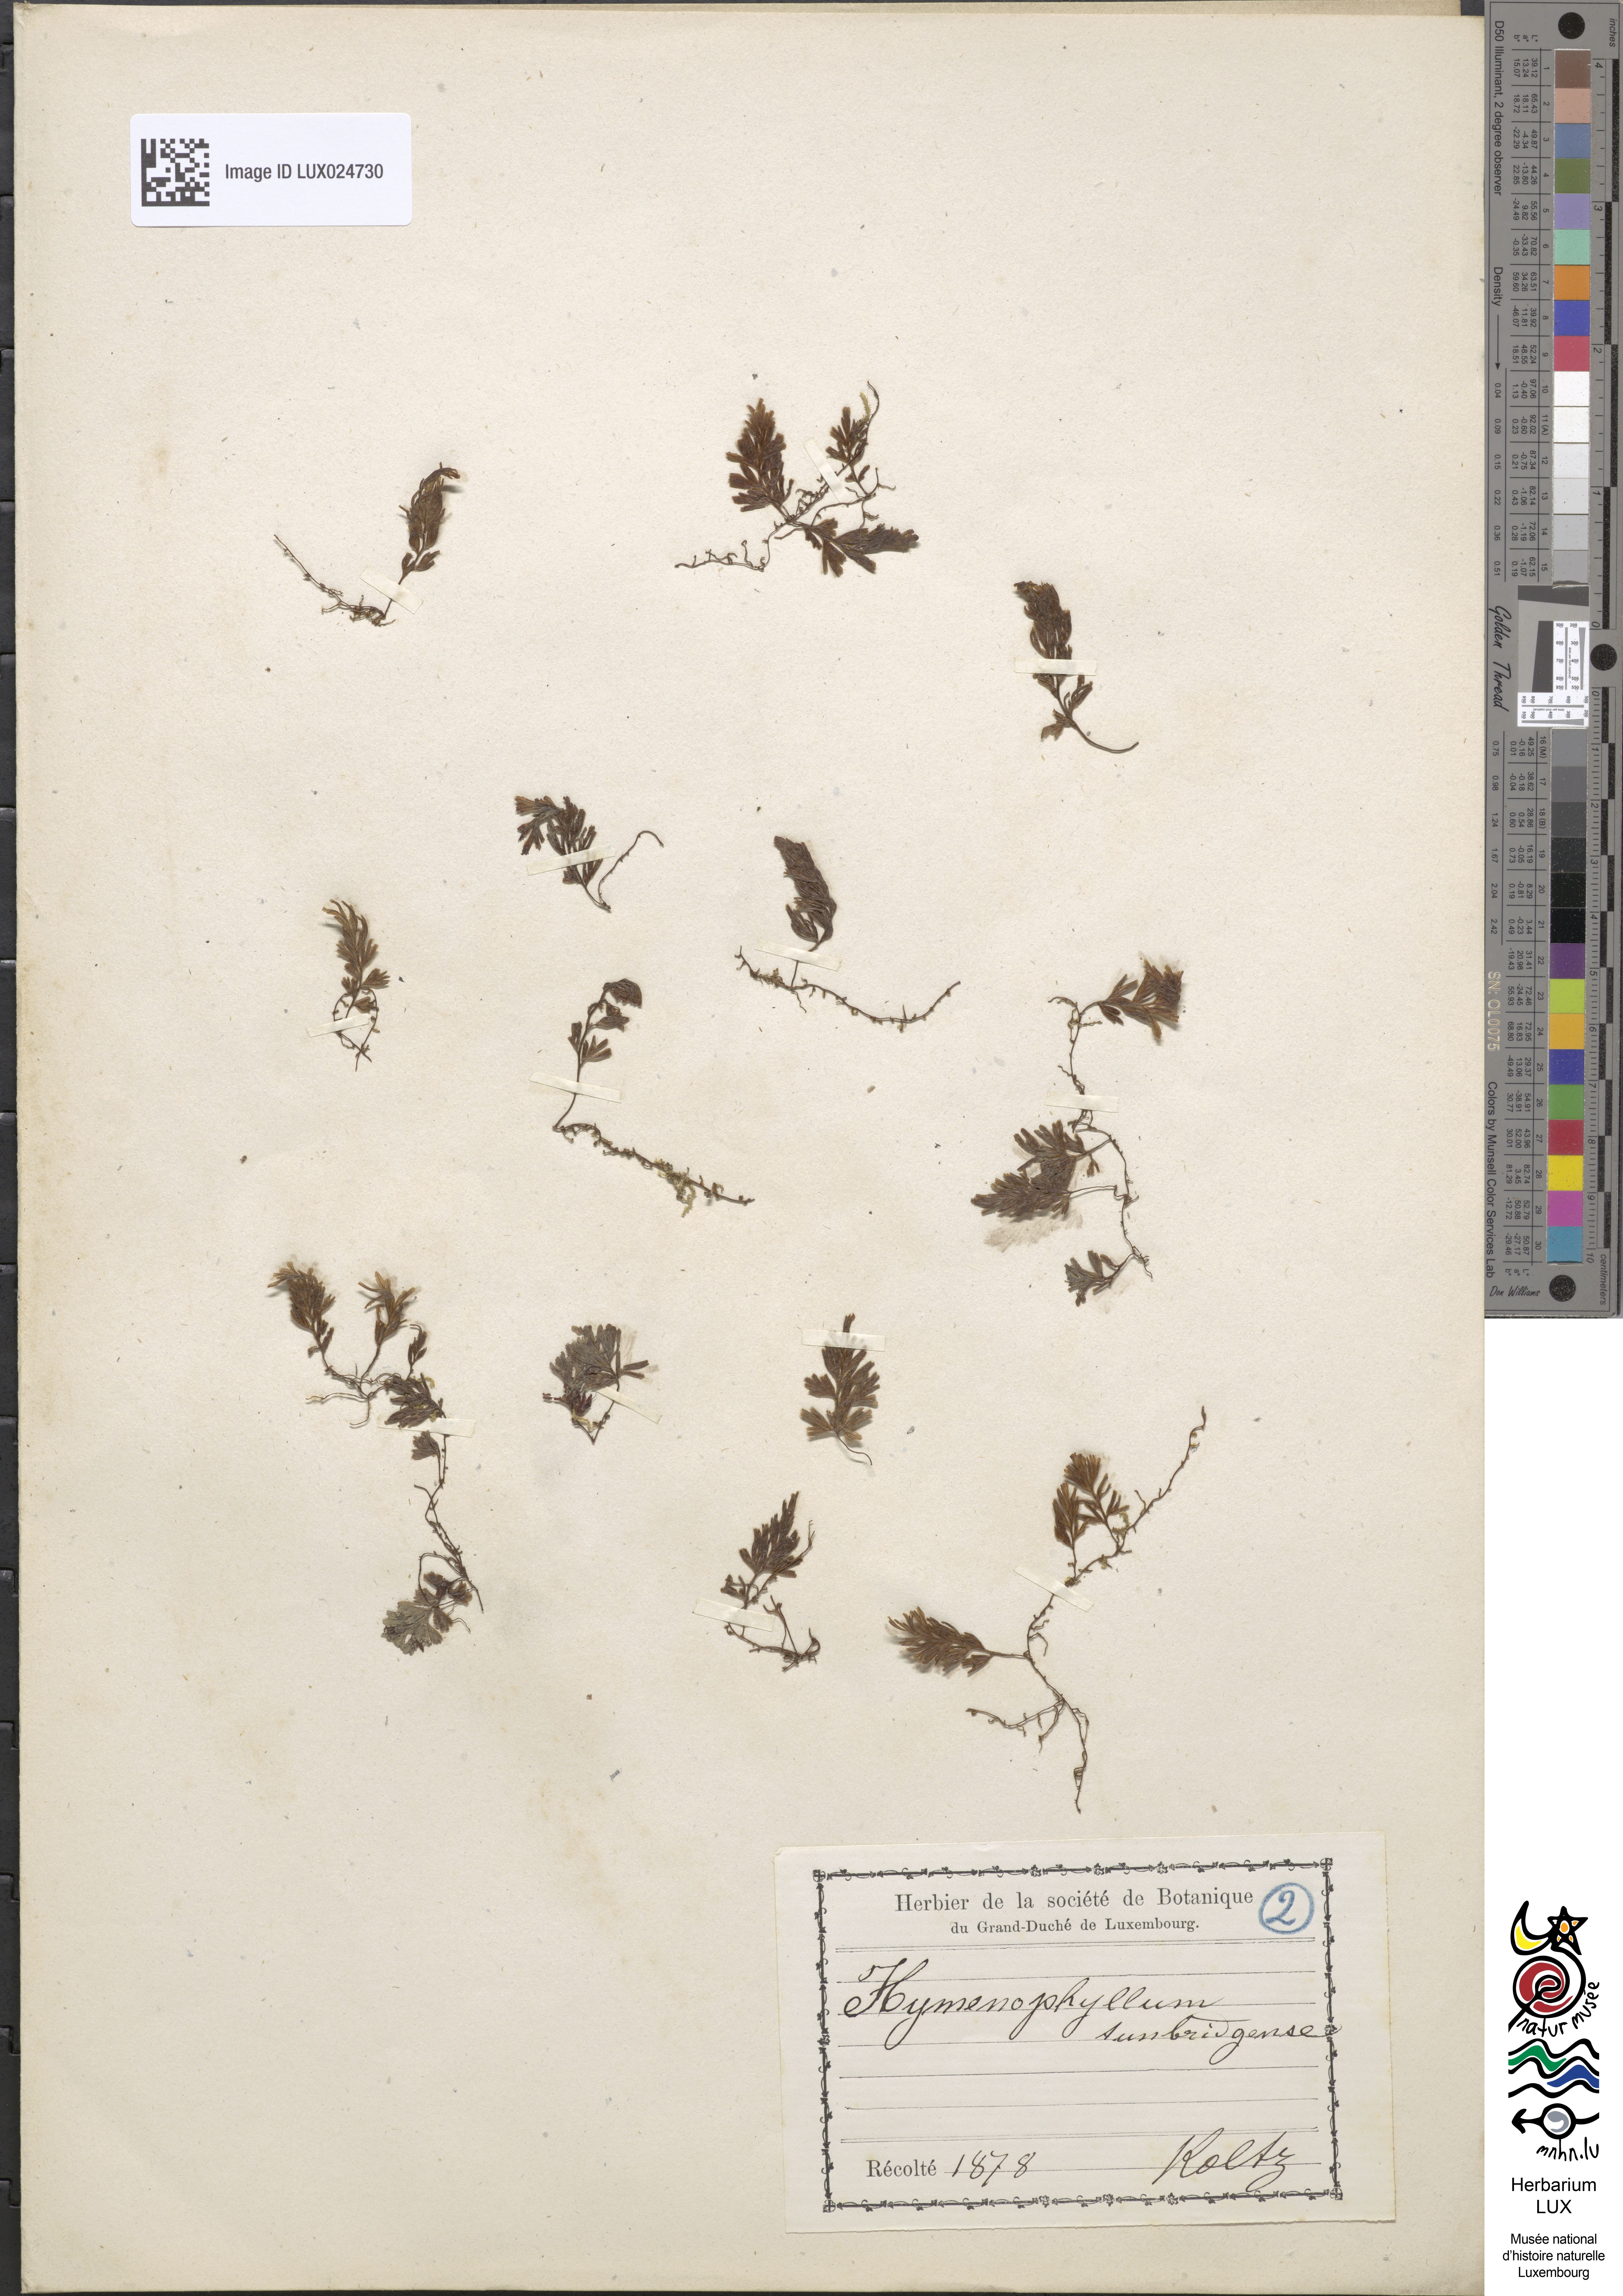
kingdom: Plantae
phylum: Tracheophyta
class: Polypodiopsida
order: Hymenophyllales
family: Hymenophyllaceae
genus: Hymenophyllum
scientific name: Hymenophyllum tunbrigense
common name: Tunbridge filmy fern
